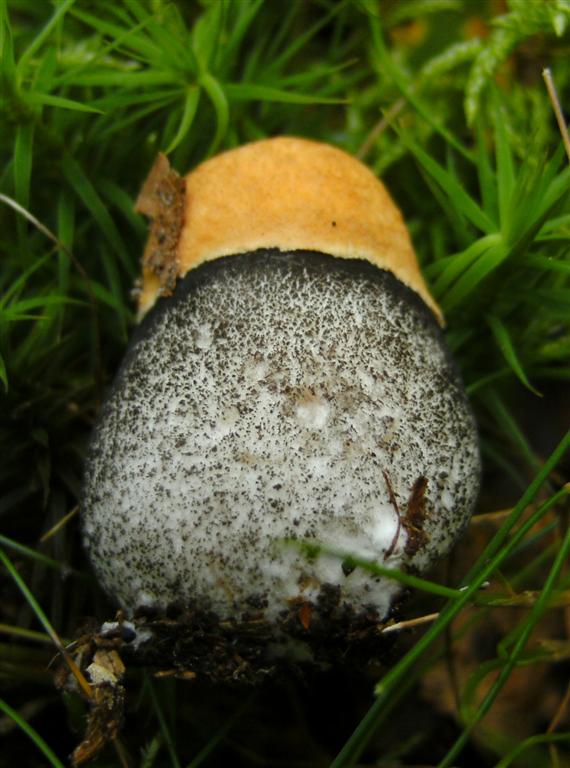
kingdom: Fungi
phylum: Basidiomycota
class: Agaricomycetes
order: Boletales
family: Boletaceae
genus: Leccinum
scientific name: Leccinum versipelle
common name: orange skælrørhat
